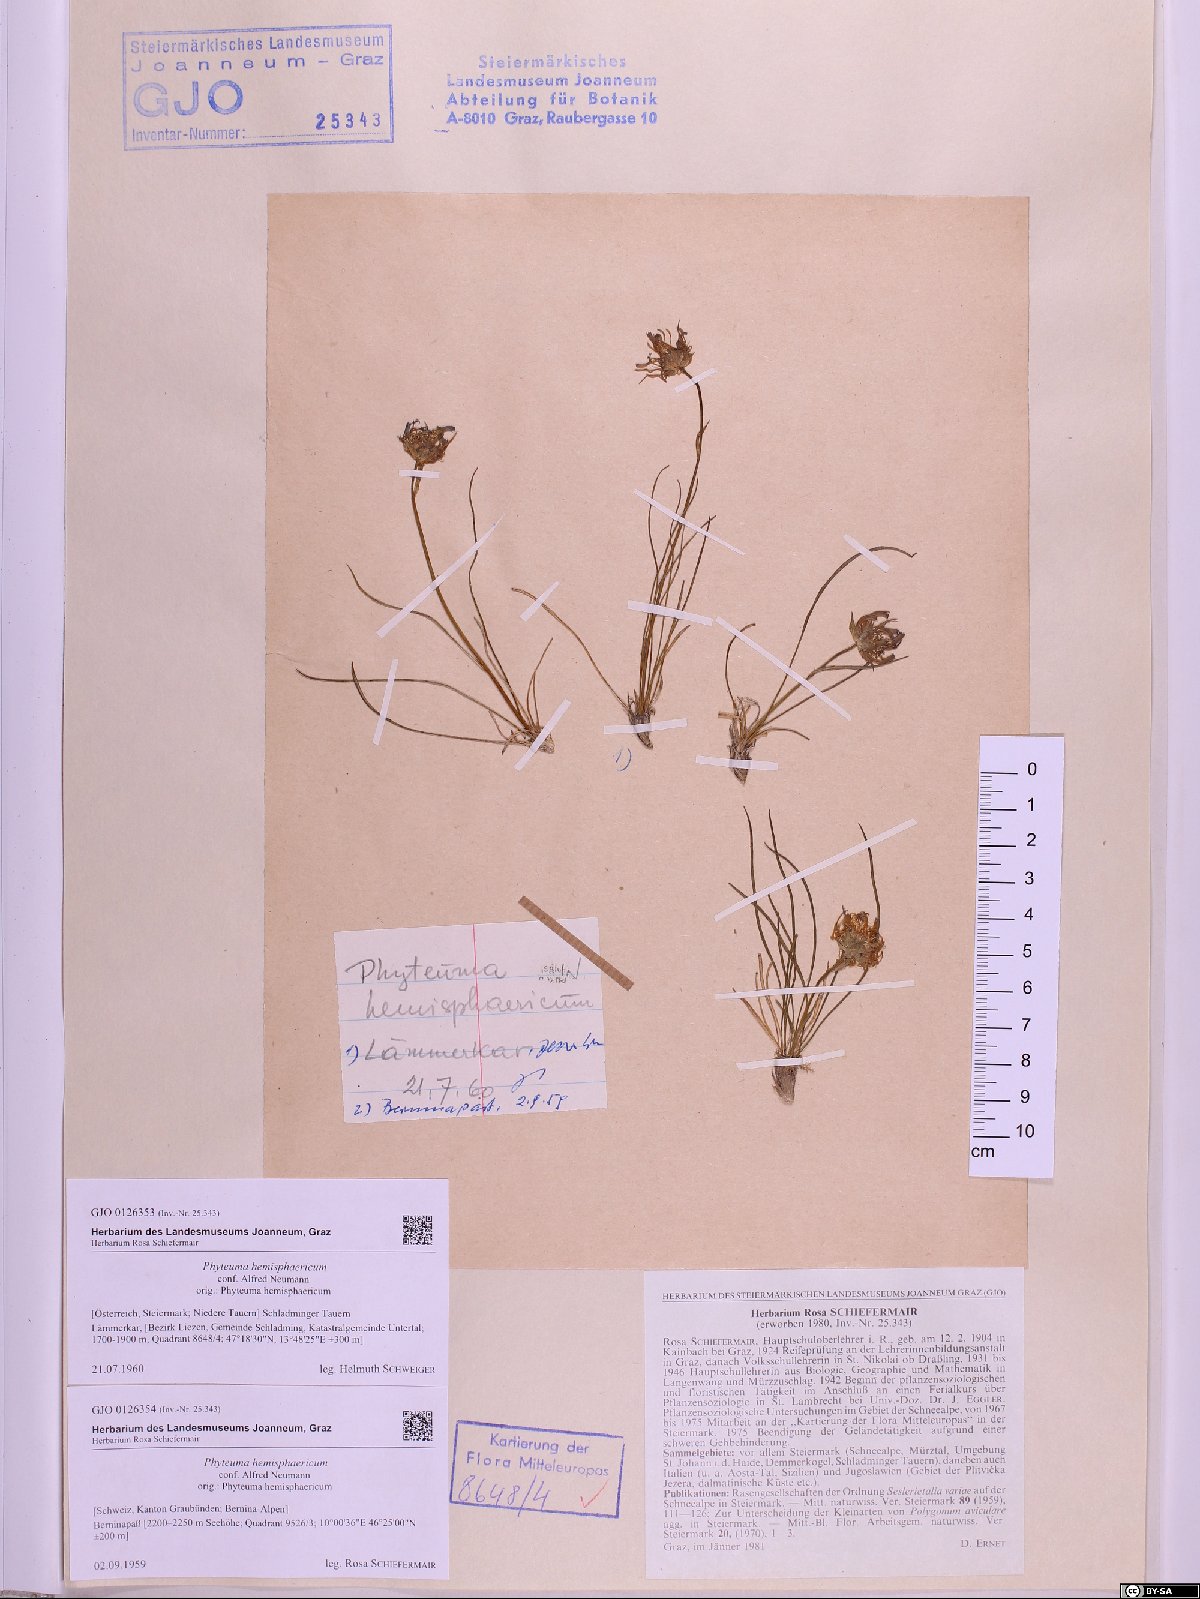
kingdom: Plantae
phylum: Tracheophyta
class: Magnoliopsida
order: Asterales
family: Campanulaceae
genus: Phyteuma
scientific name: Phyteuma hemisphaericum
